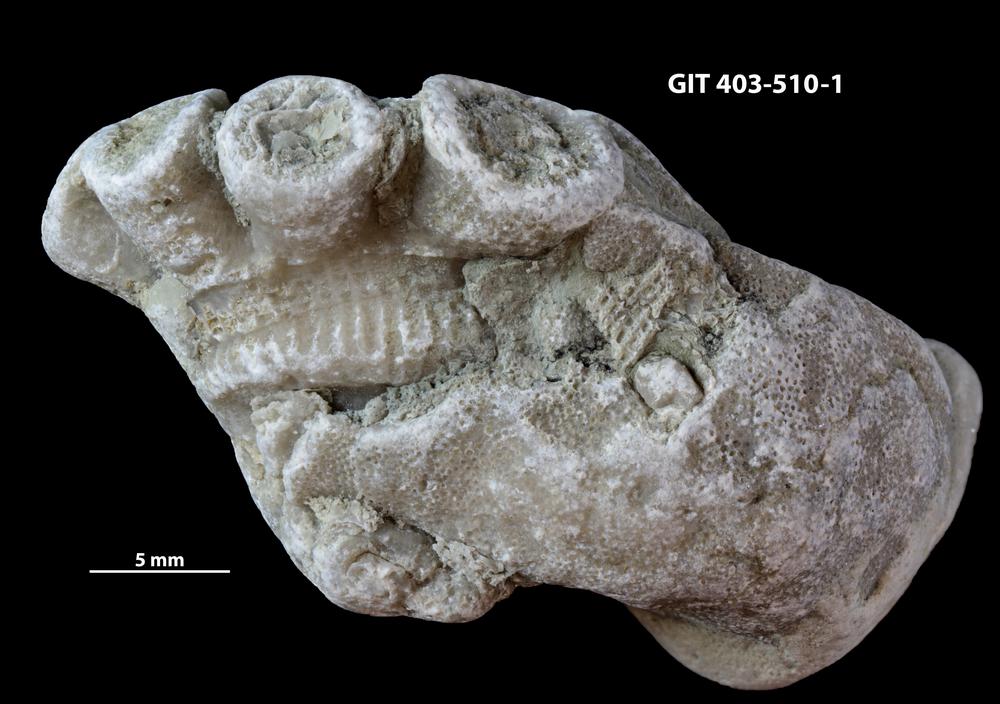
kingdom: Animalia
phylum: Bryozoa
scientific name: Bryozoa
